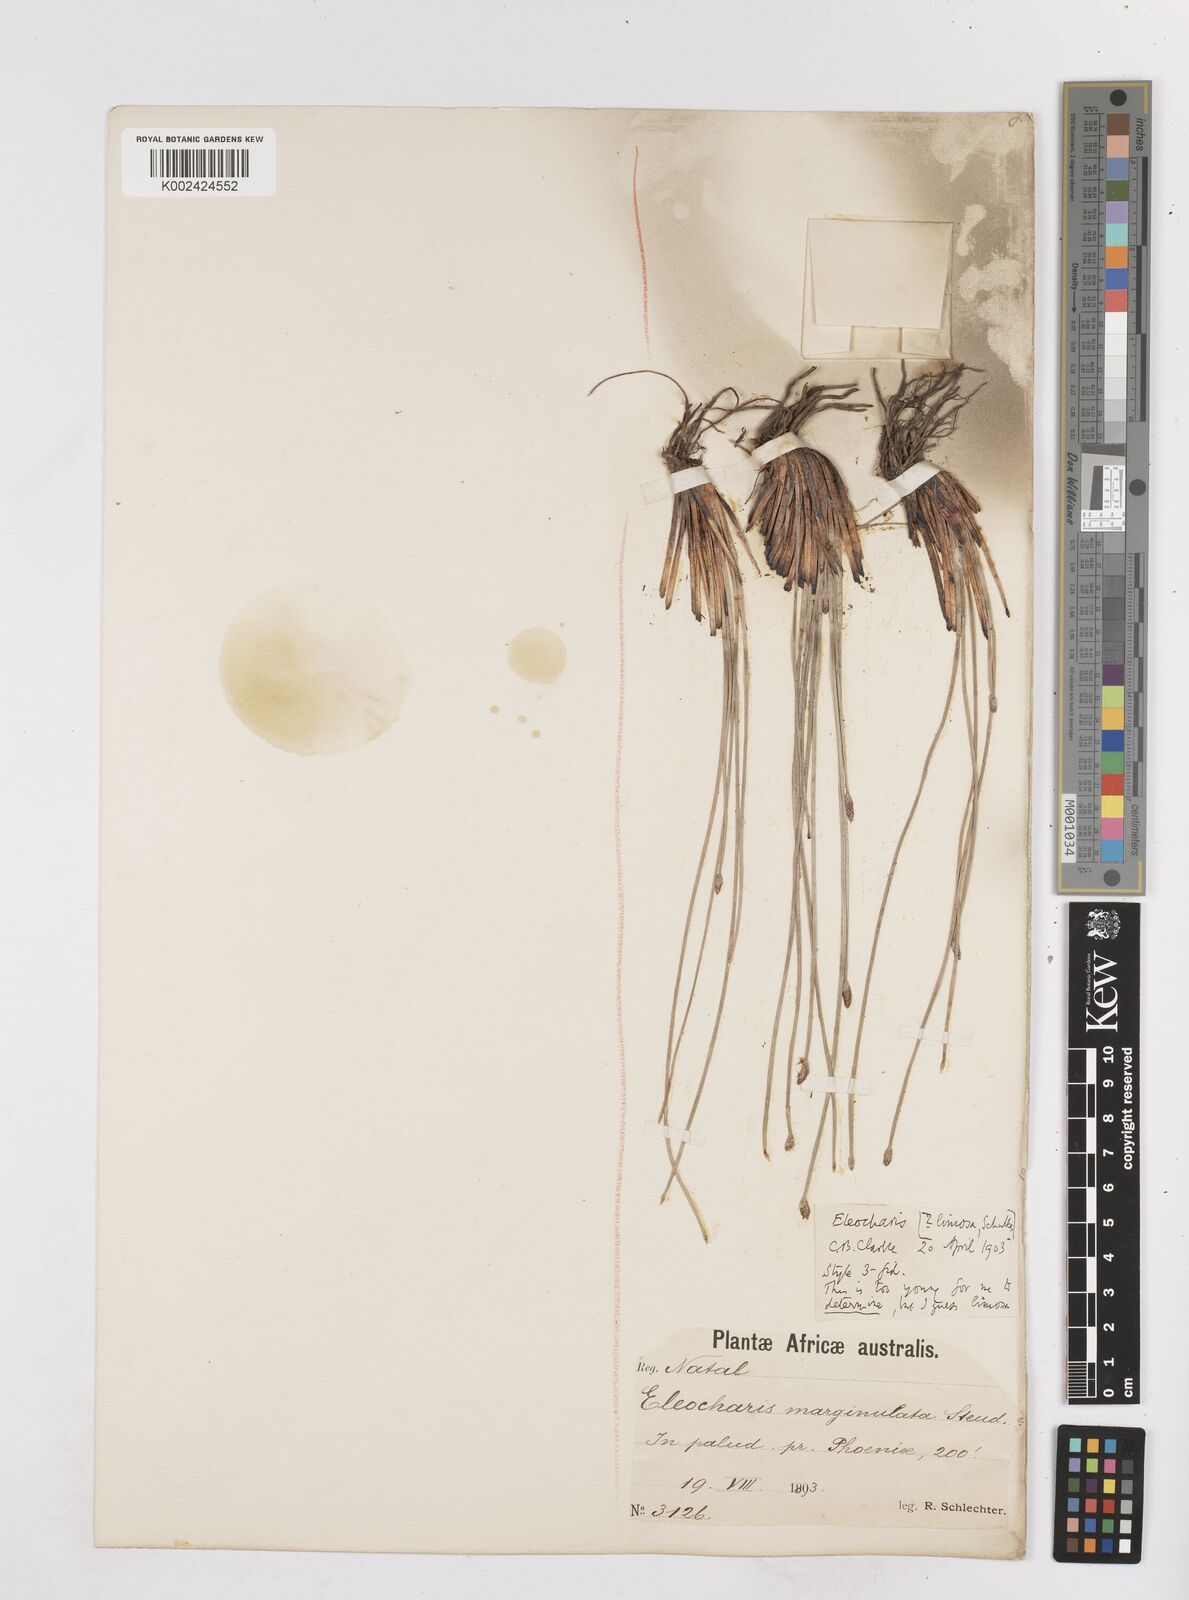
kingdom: Plantae
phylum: Tracheophyta
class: Liliopsida
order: Poales
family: Cyperaceae
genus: Eleocharis
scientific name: Eleocharis
